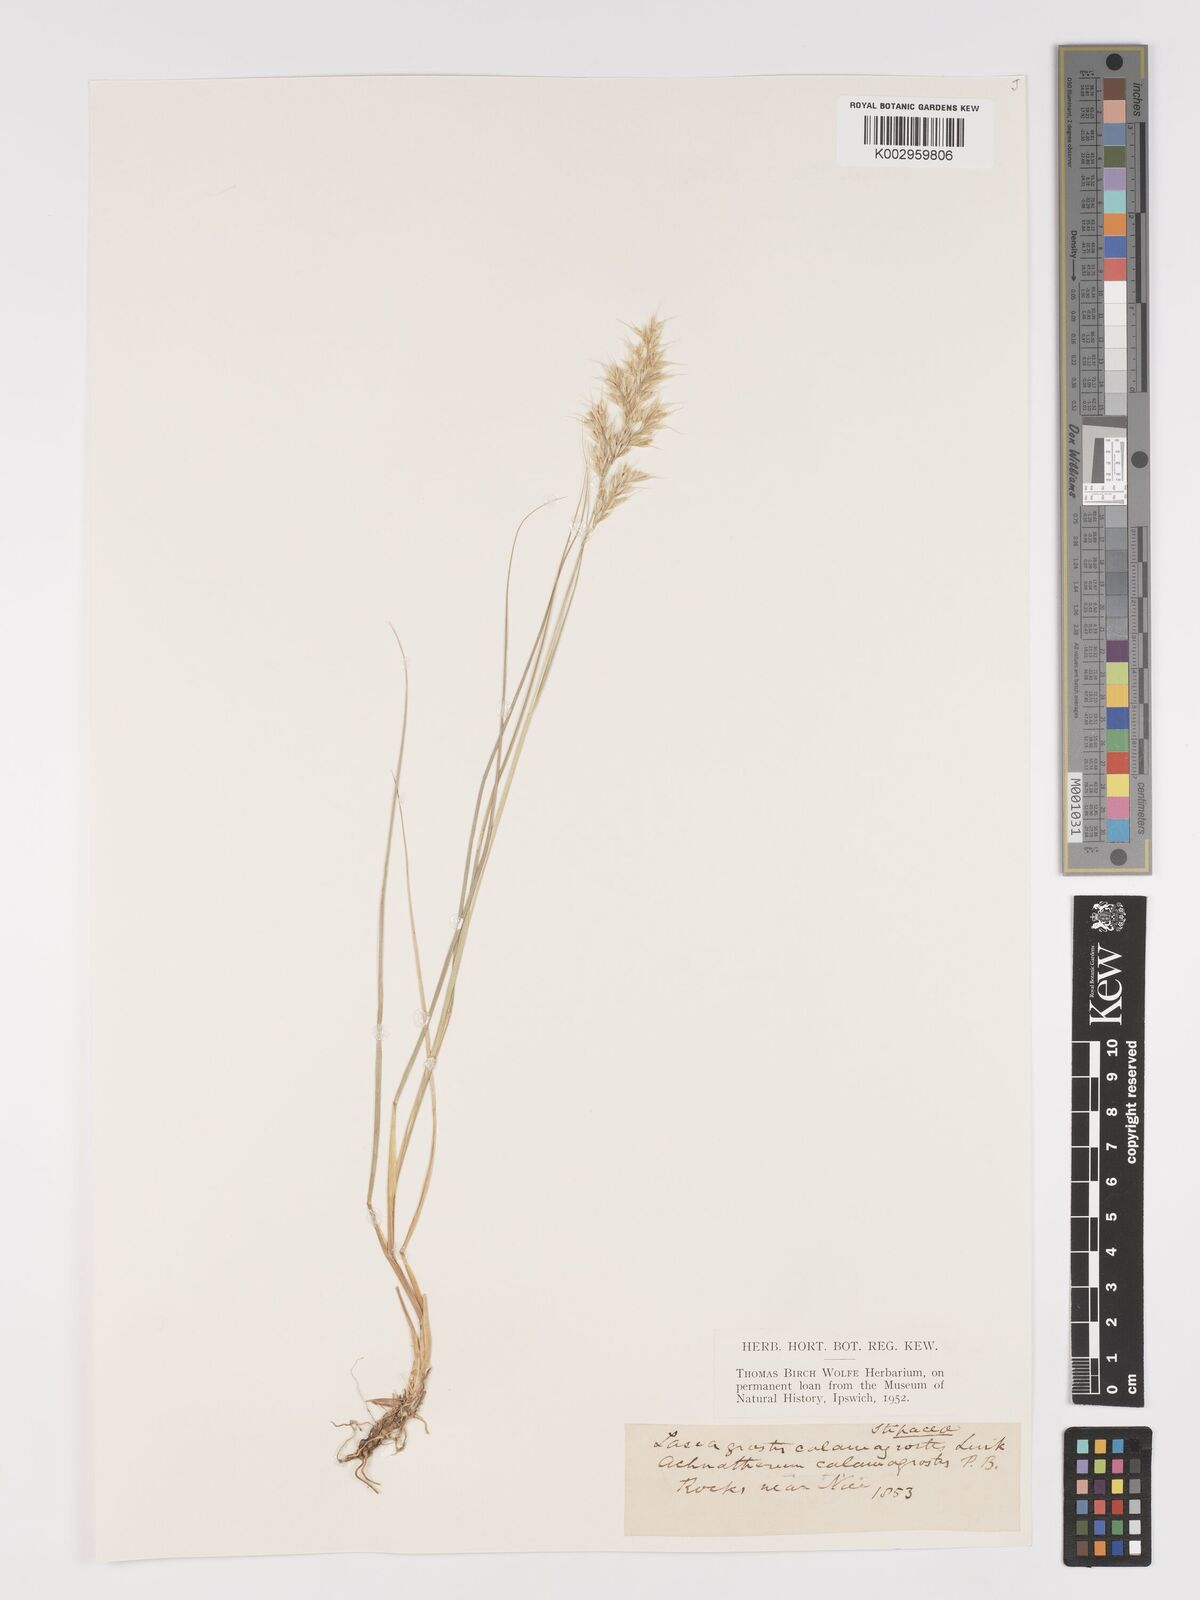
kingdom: Plantae
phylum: Tracheophyta
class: Liliopsida
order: Poales
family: Poaceae
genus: Achnatherum
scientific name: Achnatherum calamagrostis
